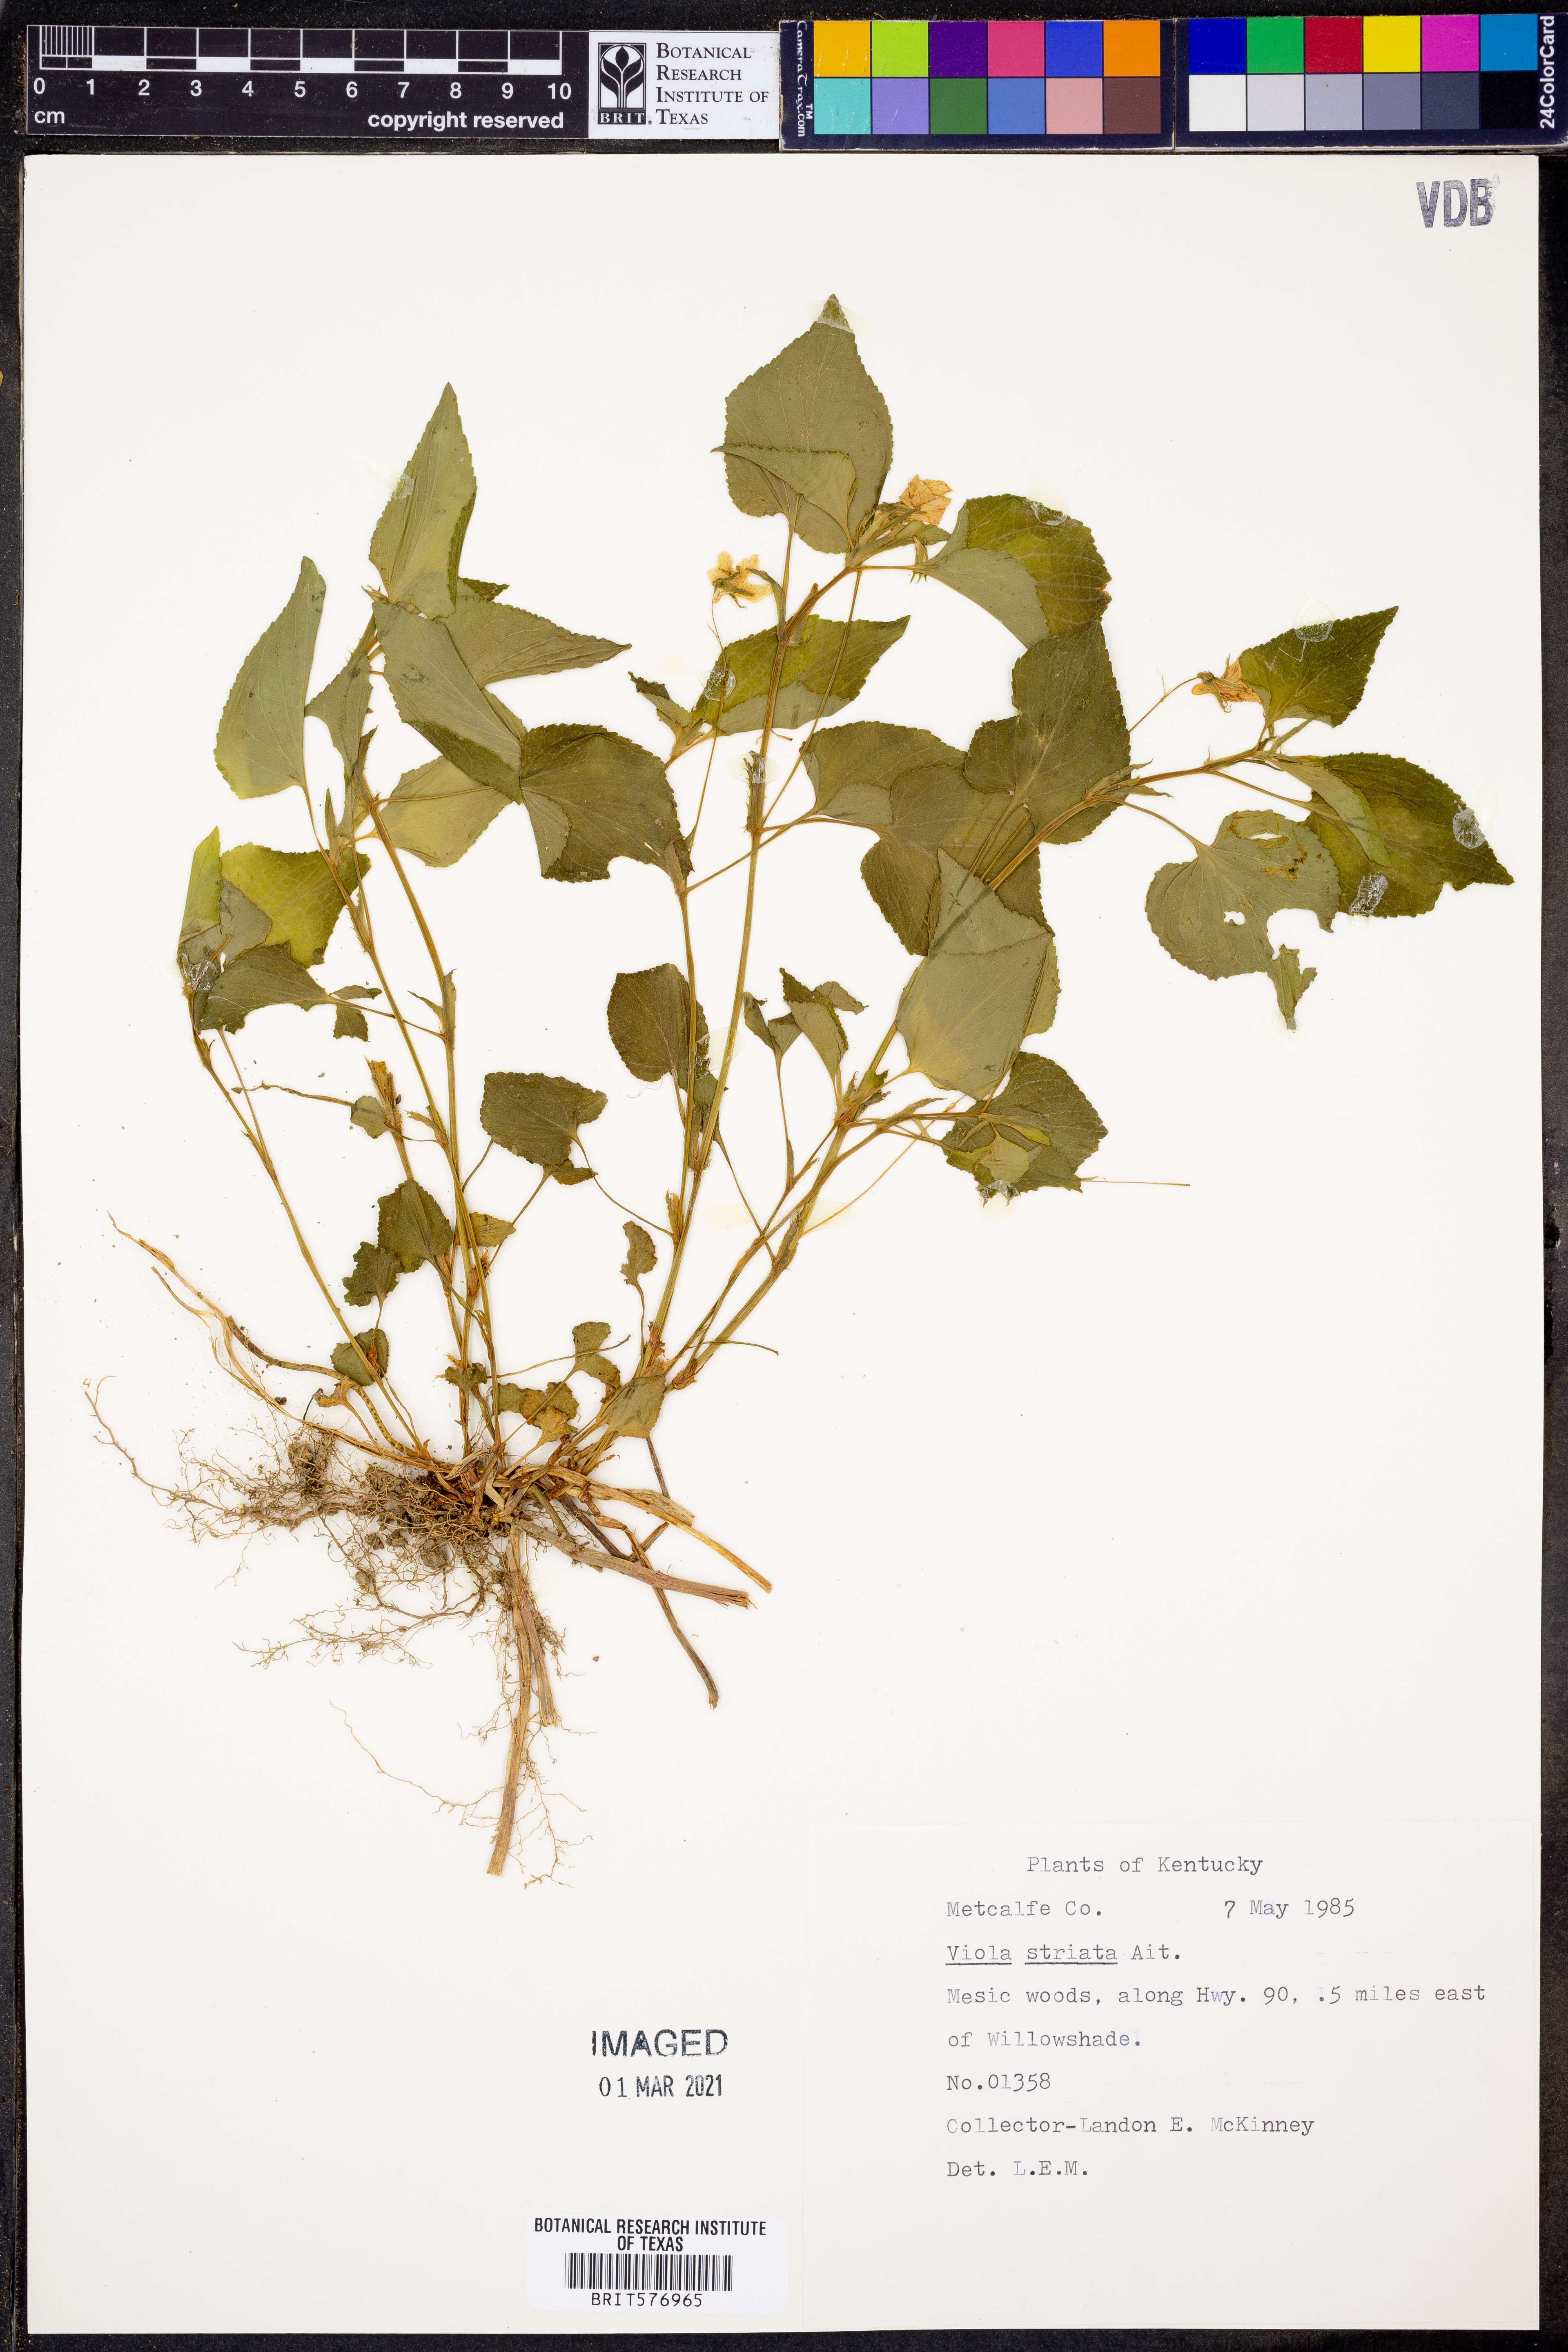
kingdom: Plantae
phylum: Tracheophyta
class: Magnoliopsida
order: Malpighiales
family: Violaceae
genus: Viola
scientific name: Viola striata
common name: Cream violet
